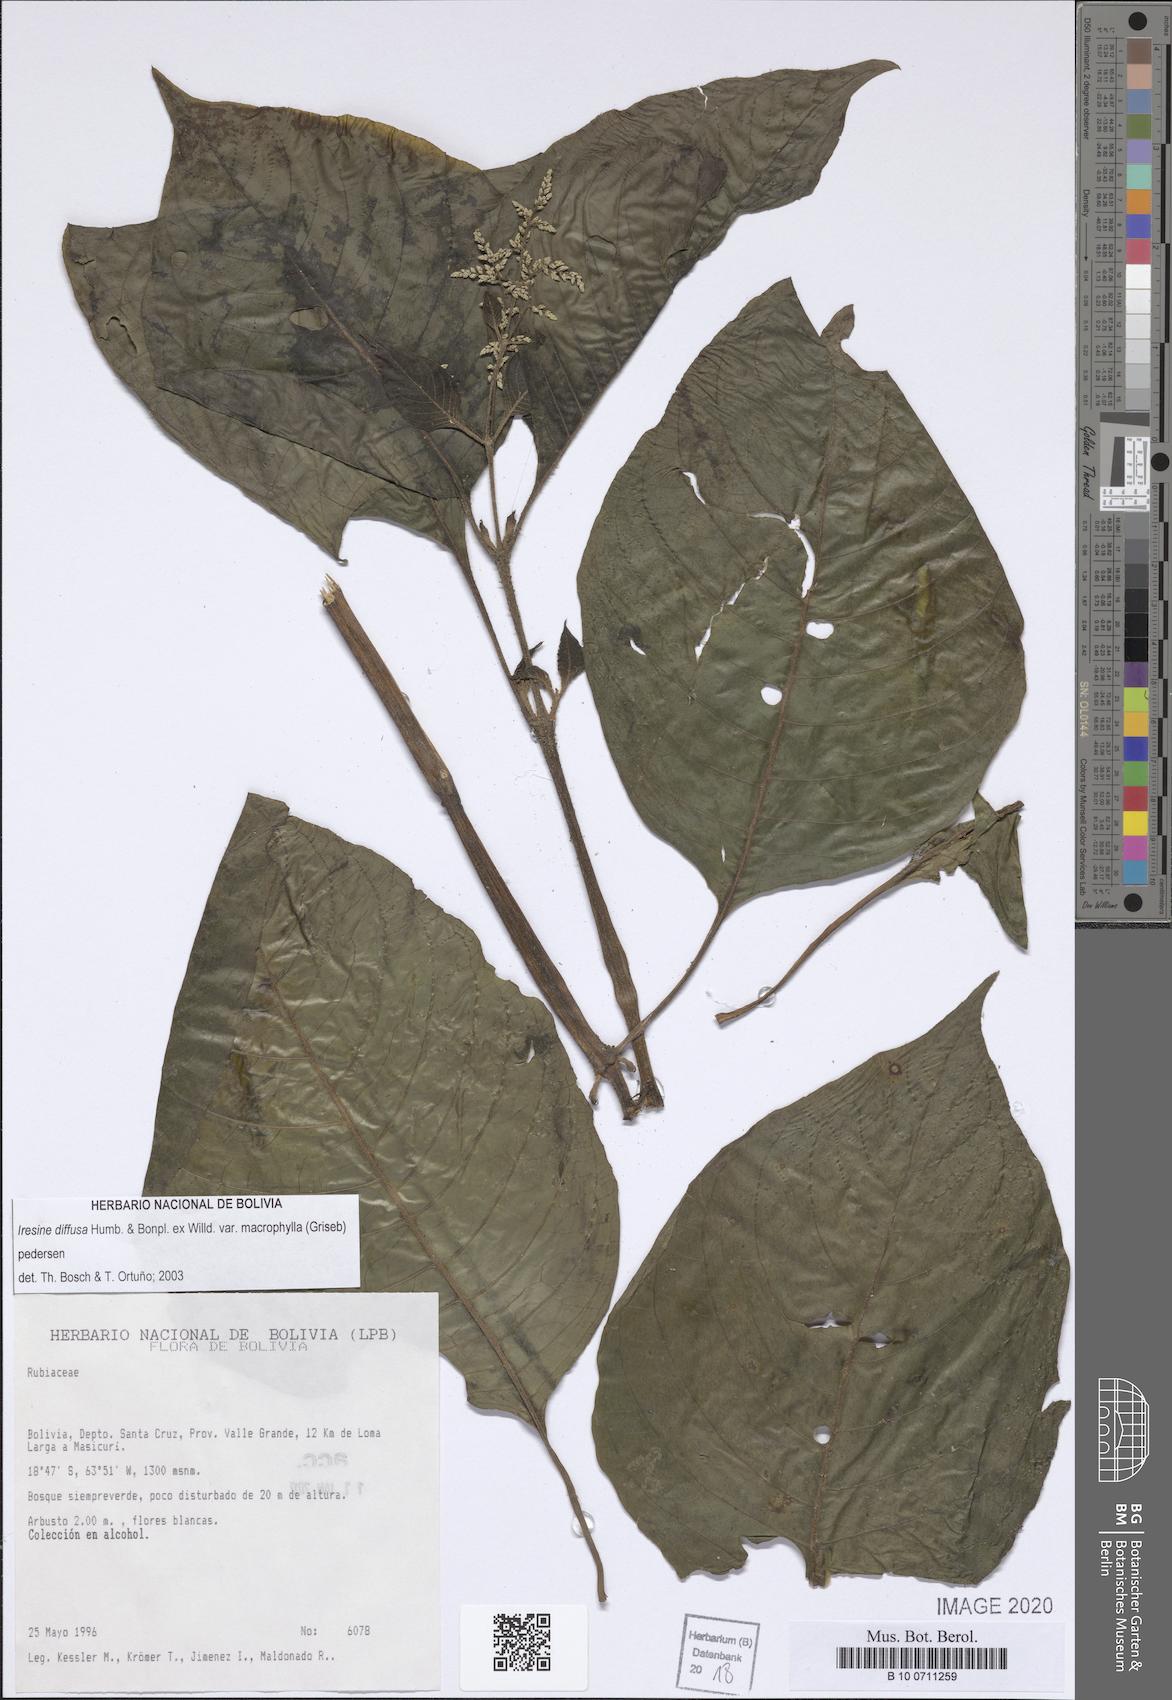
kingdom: Plantae
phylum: Tracheophyta
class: Magnoliopsida
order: Caryophyllales
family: Amaranthaceae
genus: Iresine
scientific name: Iresine diffusa
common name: Juba's-bush
